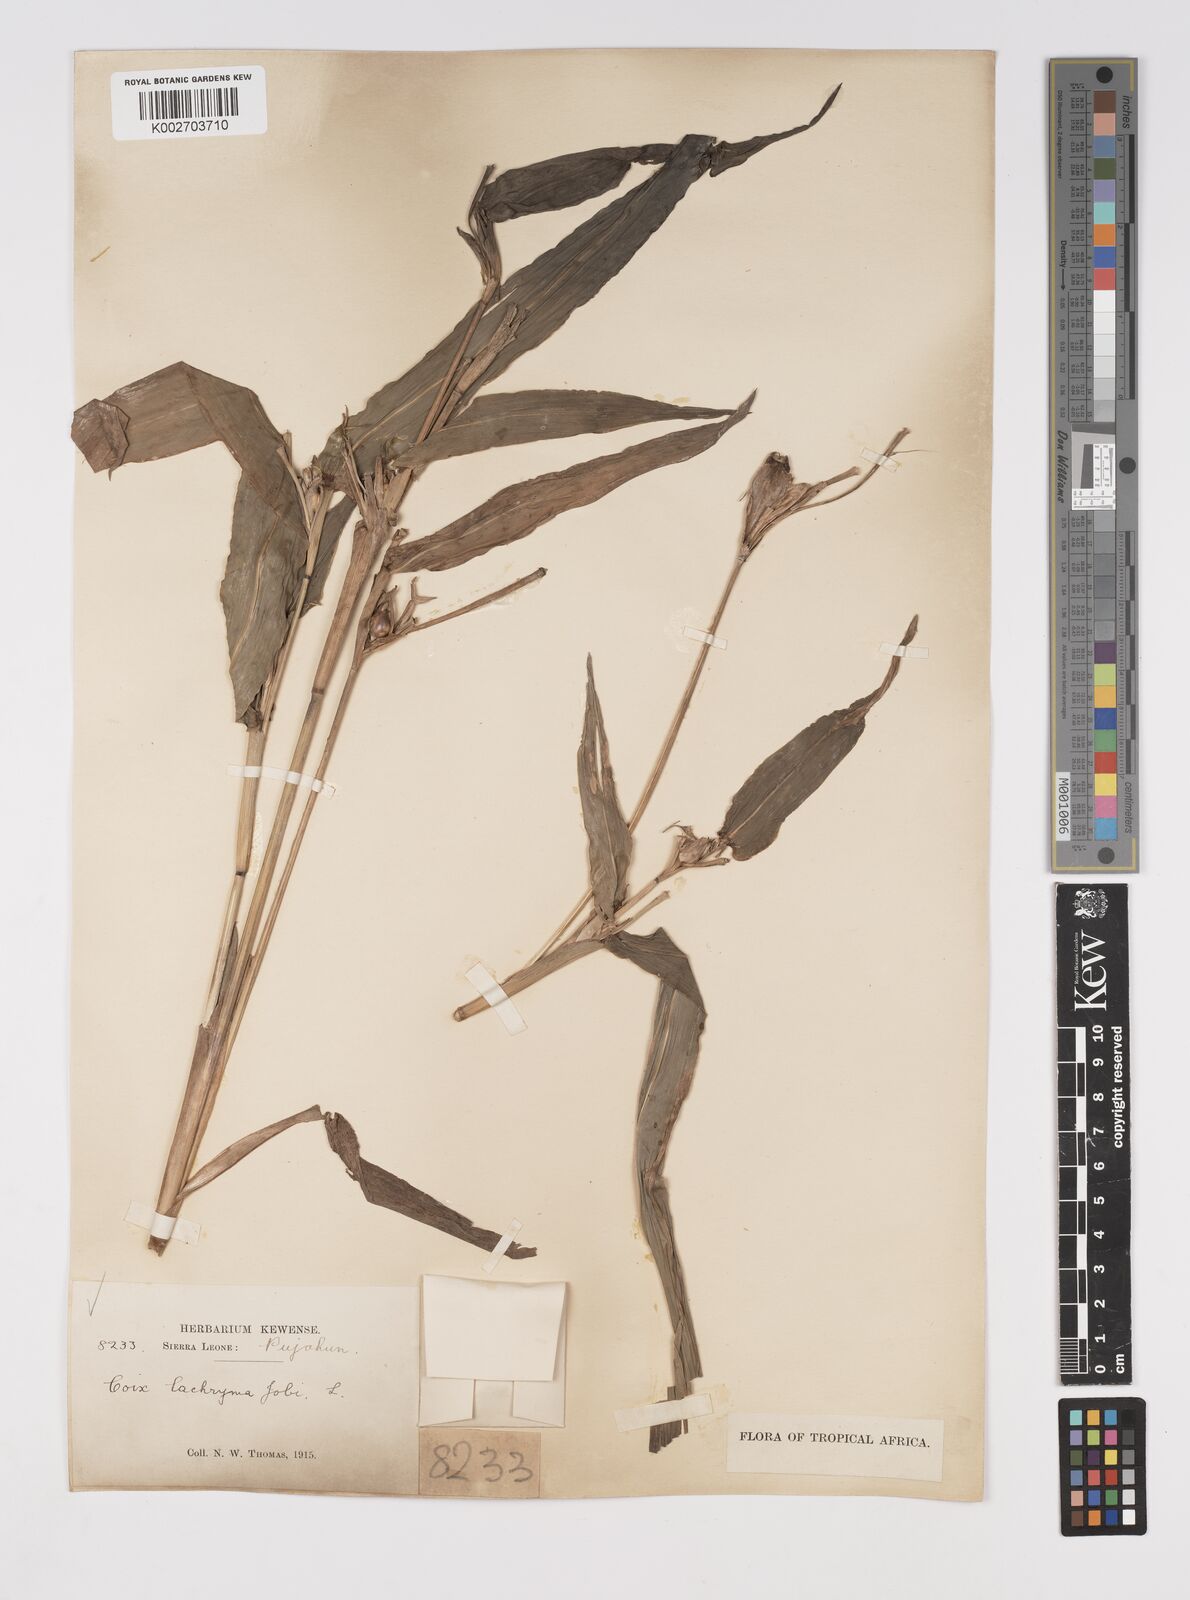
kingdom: Plantae
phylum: Tracheophyta
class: Liliopsida
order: Poales
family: Poaceae
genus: Coix
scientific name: Coix lacryma-jobi
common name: Job's tears
